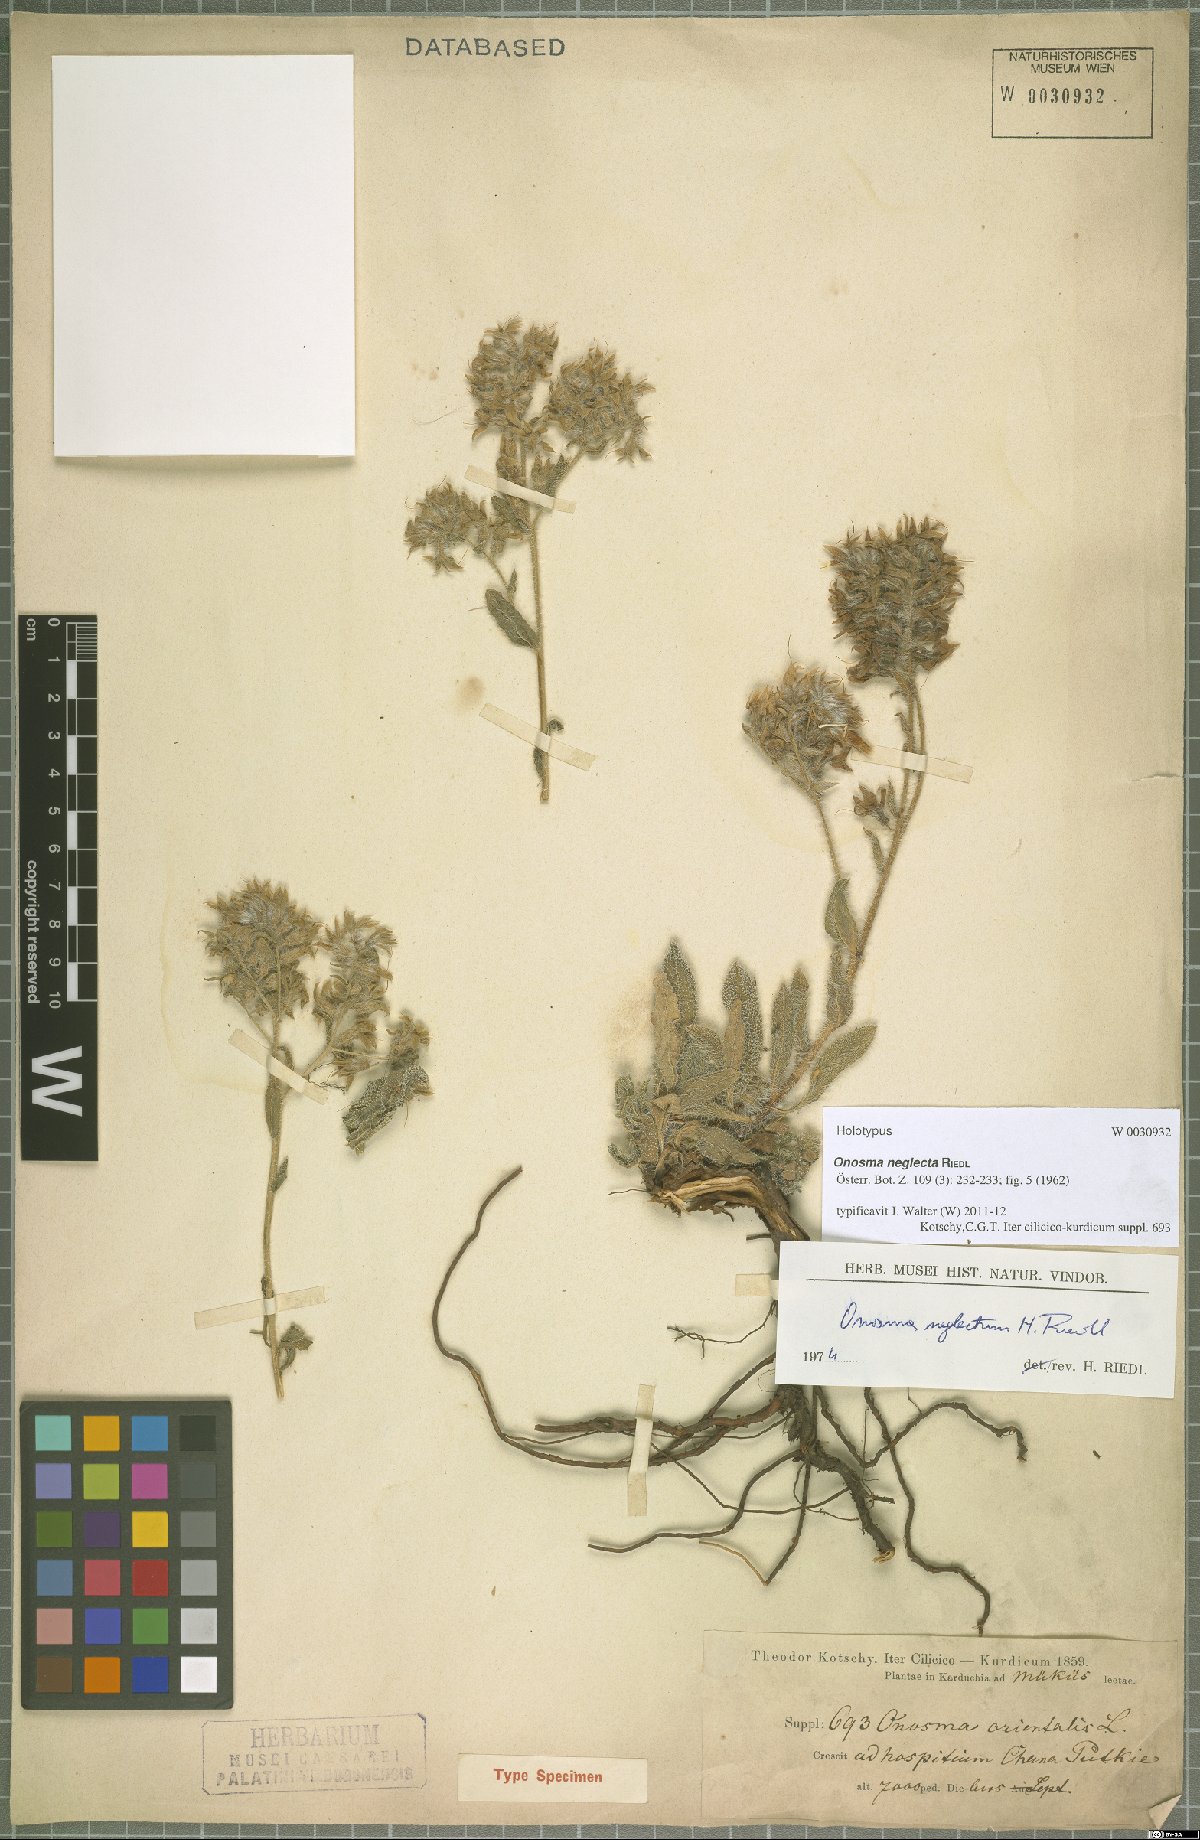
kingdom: Plantae
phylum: Tracheophyta
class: Magnoliopsida
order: Boraginales
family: Boraginaceae
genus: Onosma
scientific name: Onosma neglecta
